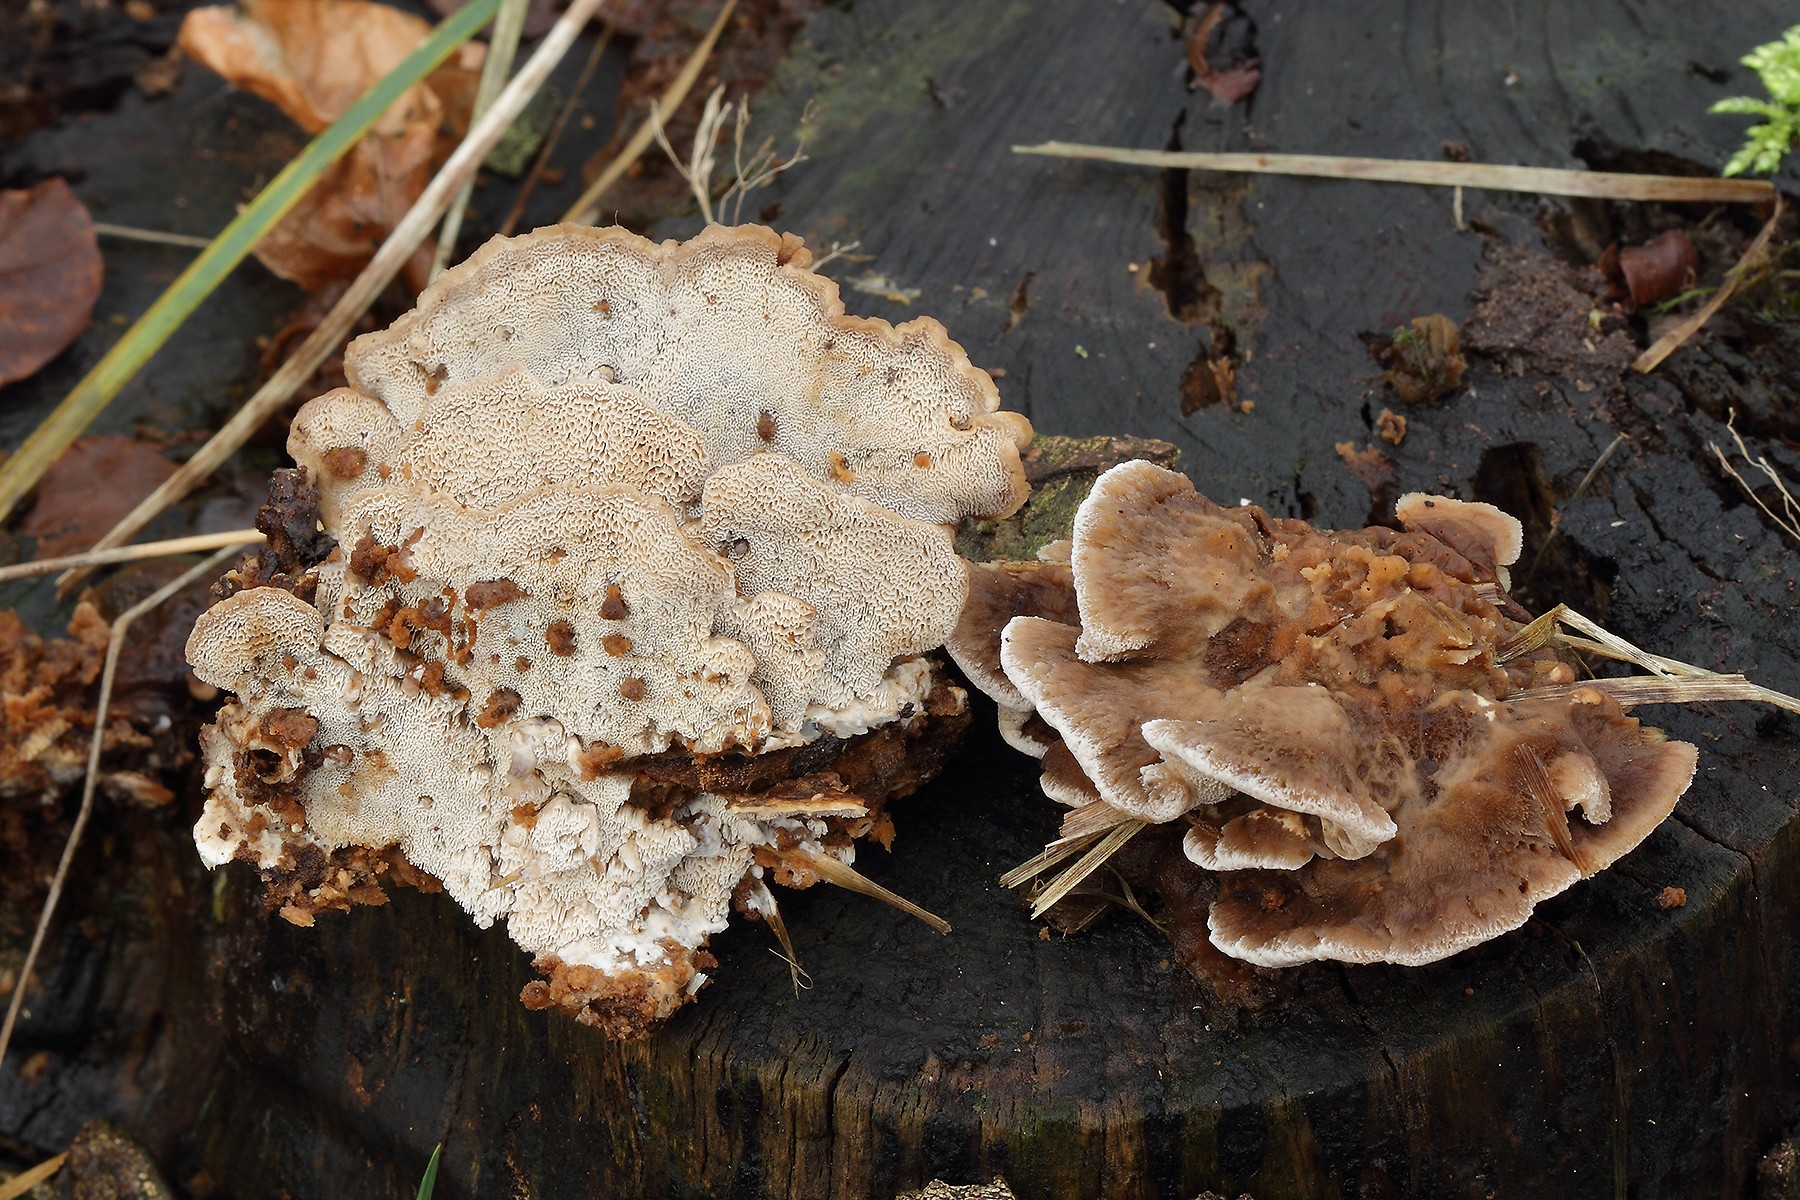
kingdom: Fungi
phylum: Basidiomycota
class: Agaricomycetes
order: Polyporales
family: Phanerochaetaceae
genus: Bjerkandera
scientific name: Bjerkandera fumosa
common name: grågul sodporesvamp
